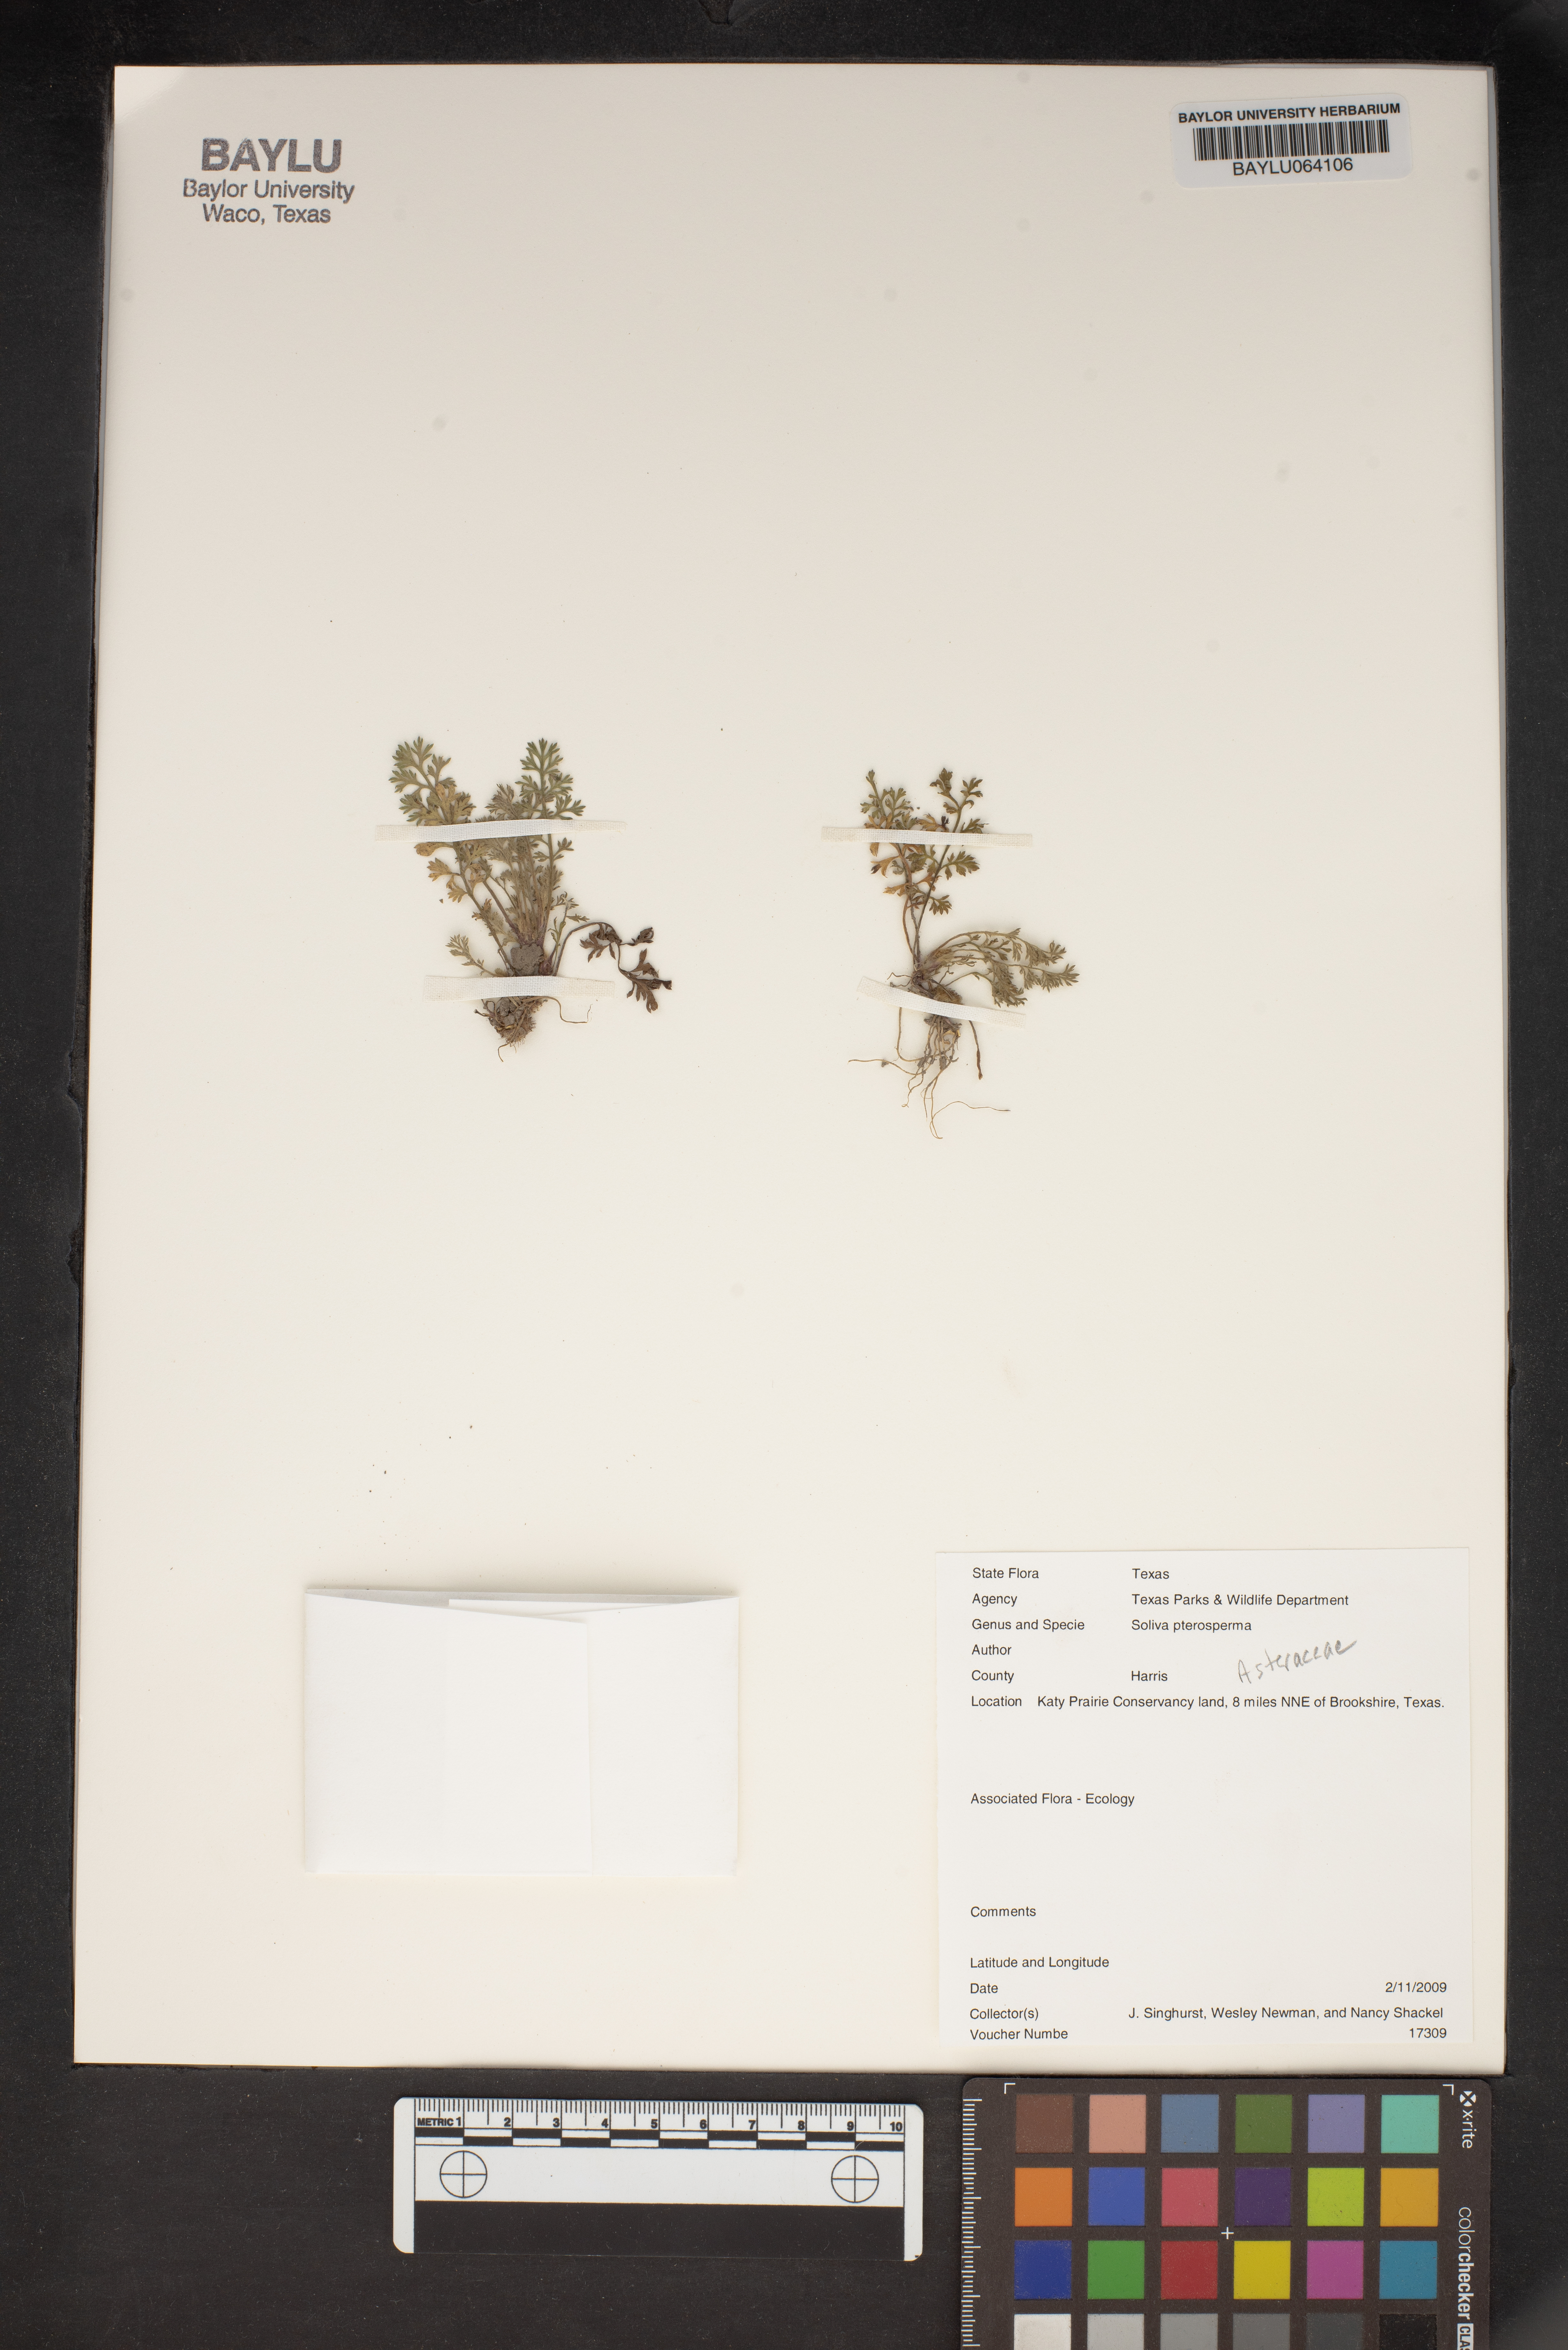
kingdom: Plantae
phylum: Tracheophyta
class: Magnoliopsida
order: Asterales
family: Asteraceae
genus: Soliva
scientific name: Soliva sessilis
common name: Field burrweed
